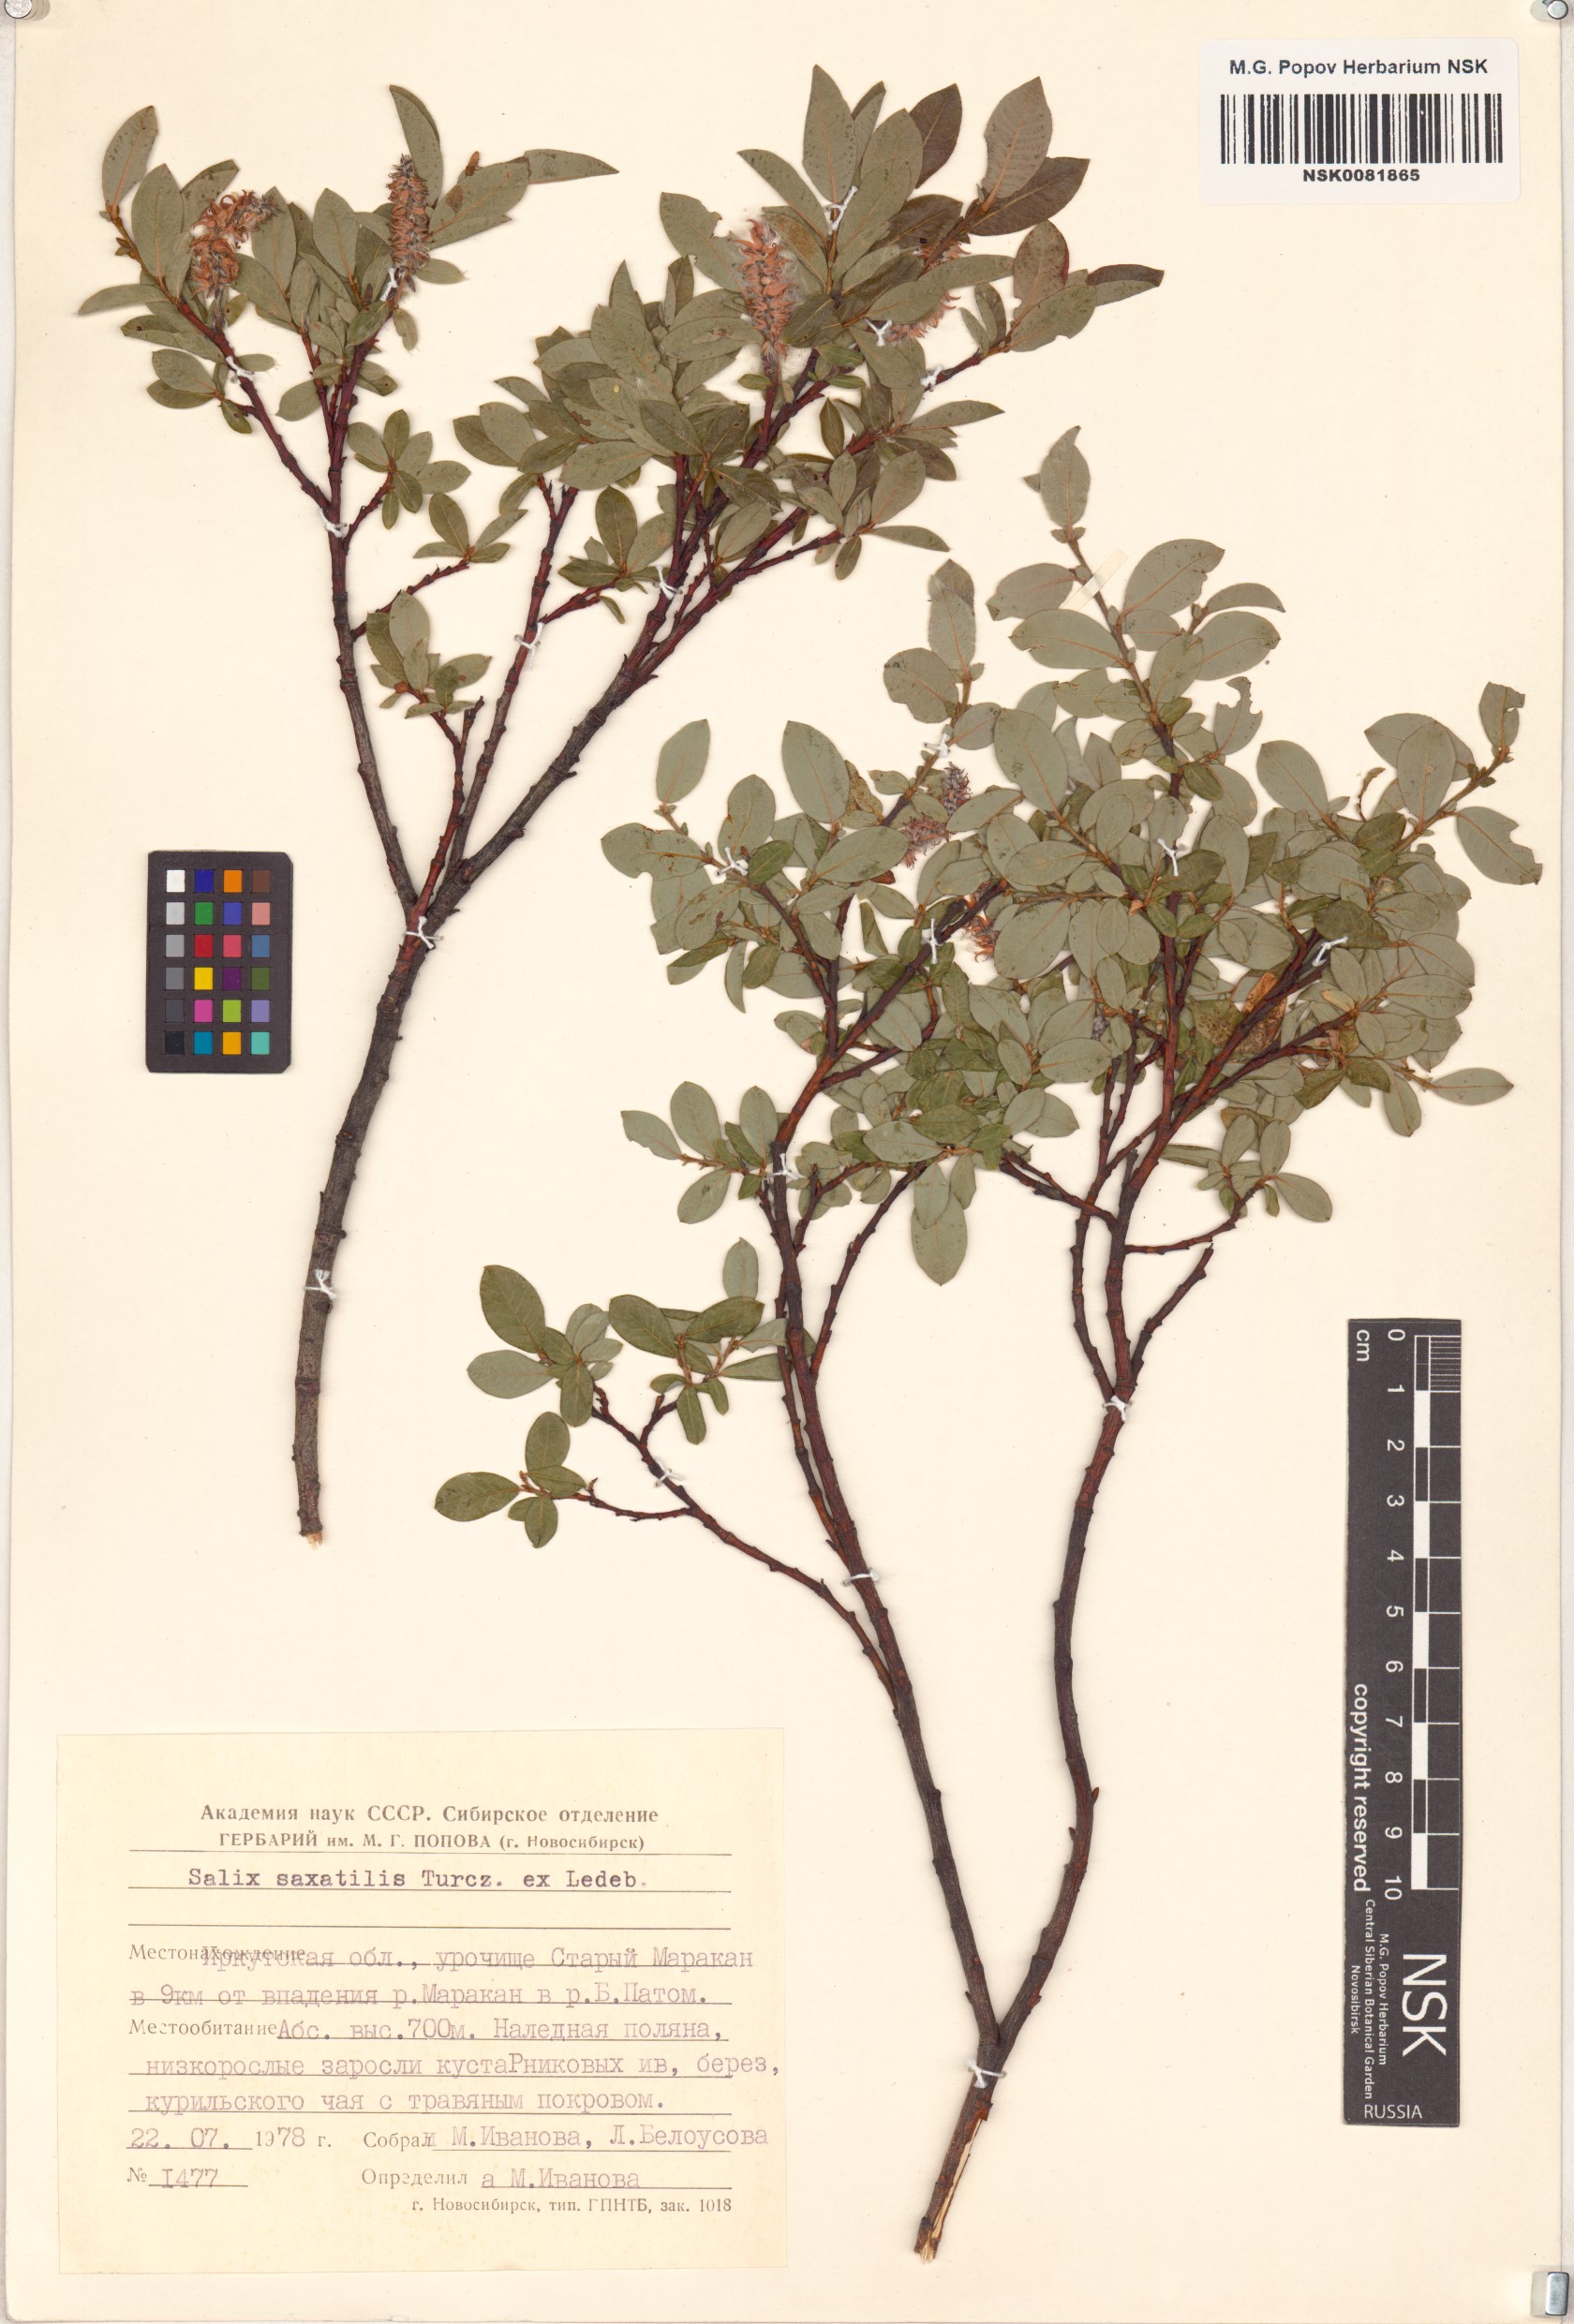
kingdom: Plantae
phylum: Tracheophyta
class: Magnoliopsida
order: Malpighiales
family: Salicaceae
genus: Salix
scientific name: Salix saxatilis
